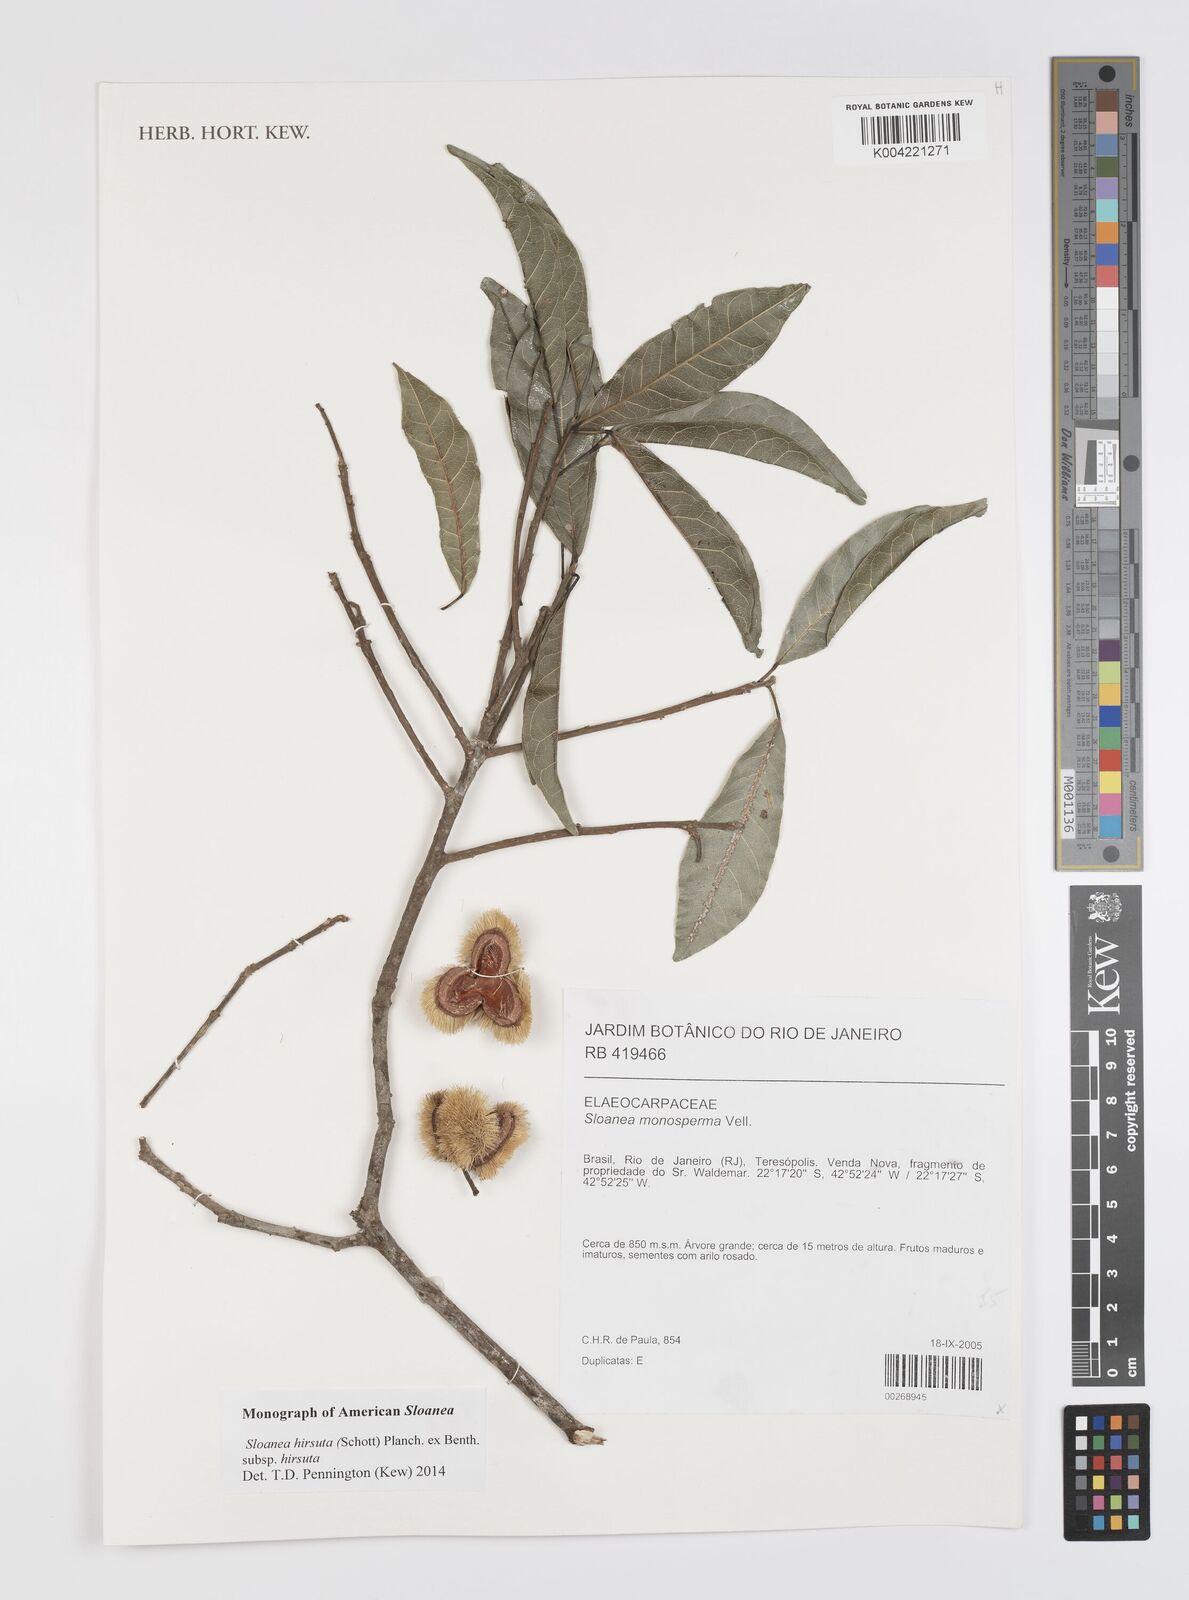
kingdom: Plantae
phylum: Tracheophyta
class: Magnoliopsida
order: Oxalidales
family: Elaeocarpaceae
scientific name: Elaeocarpaceae
